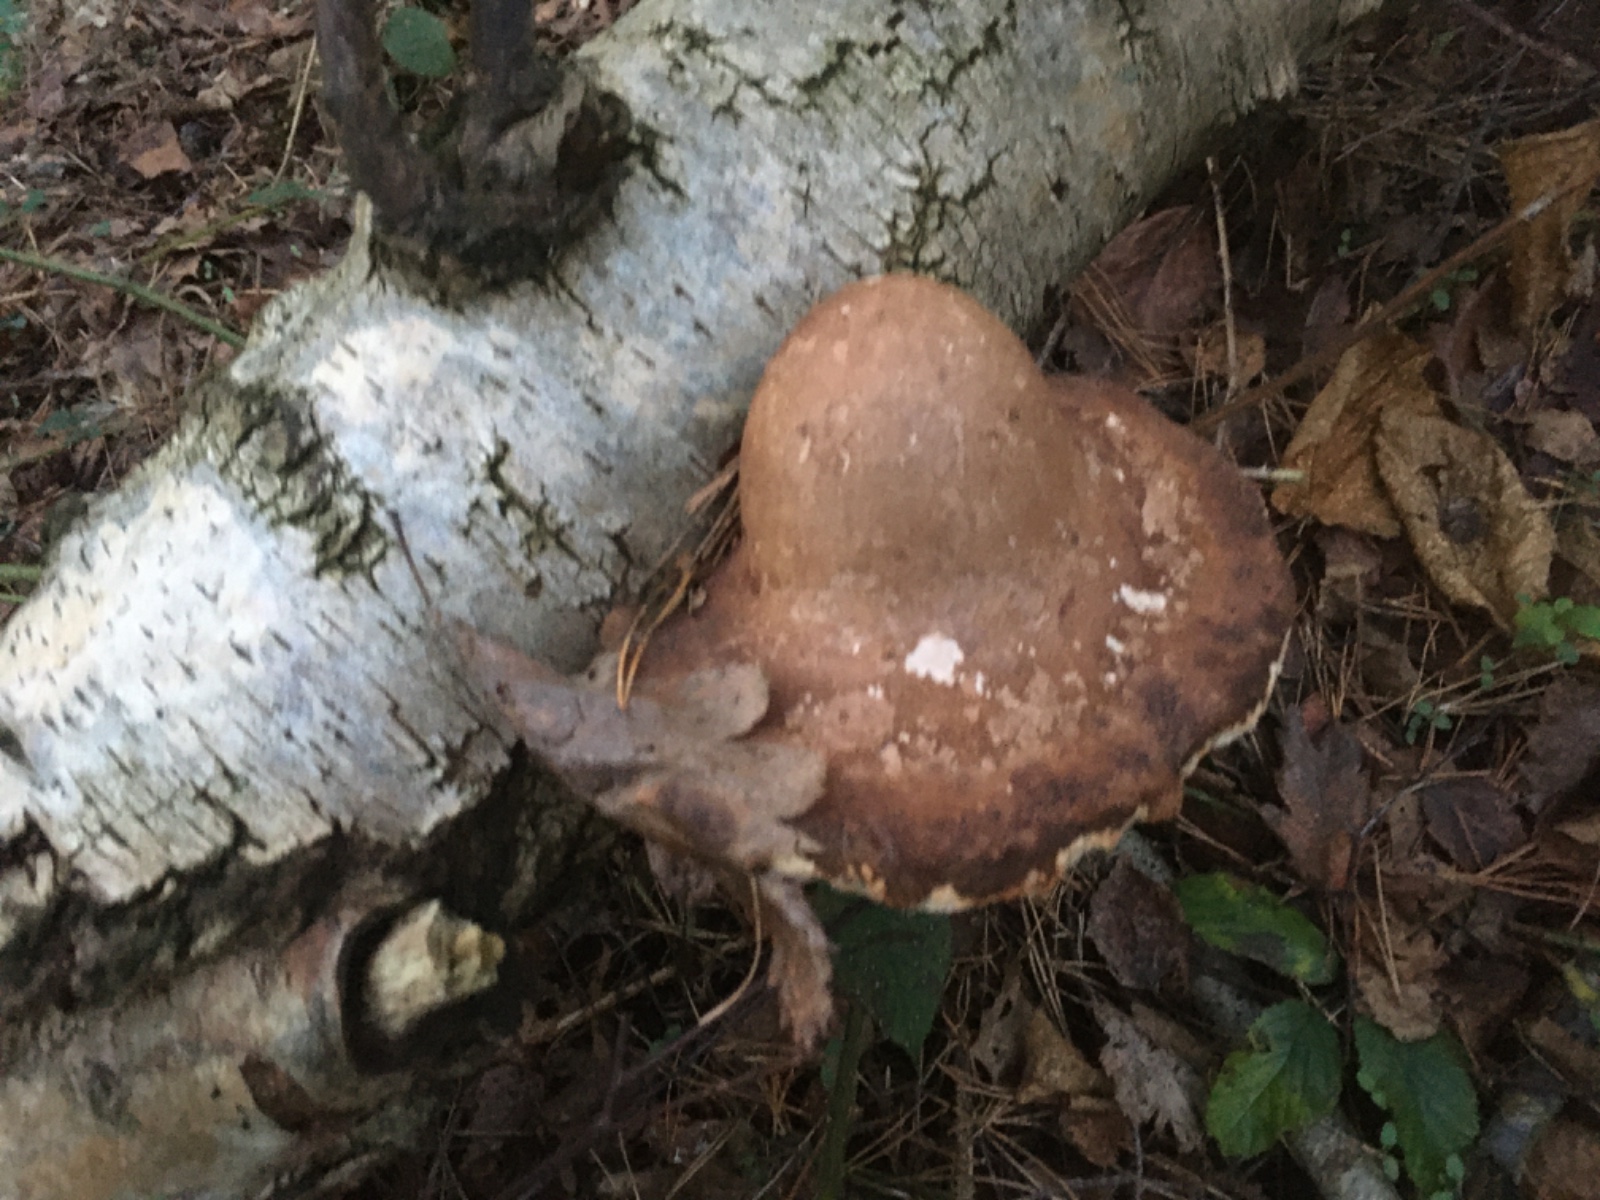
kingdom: Fungi
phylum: Basidiomycota
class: Agaricomycetes
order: Polyporales
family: Fomitopsidaceae
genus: Fomitopsis
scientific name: Fomitopsis betulina
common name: birkeporesvamp
